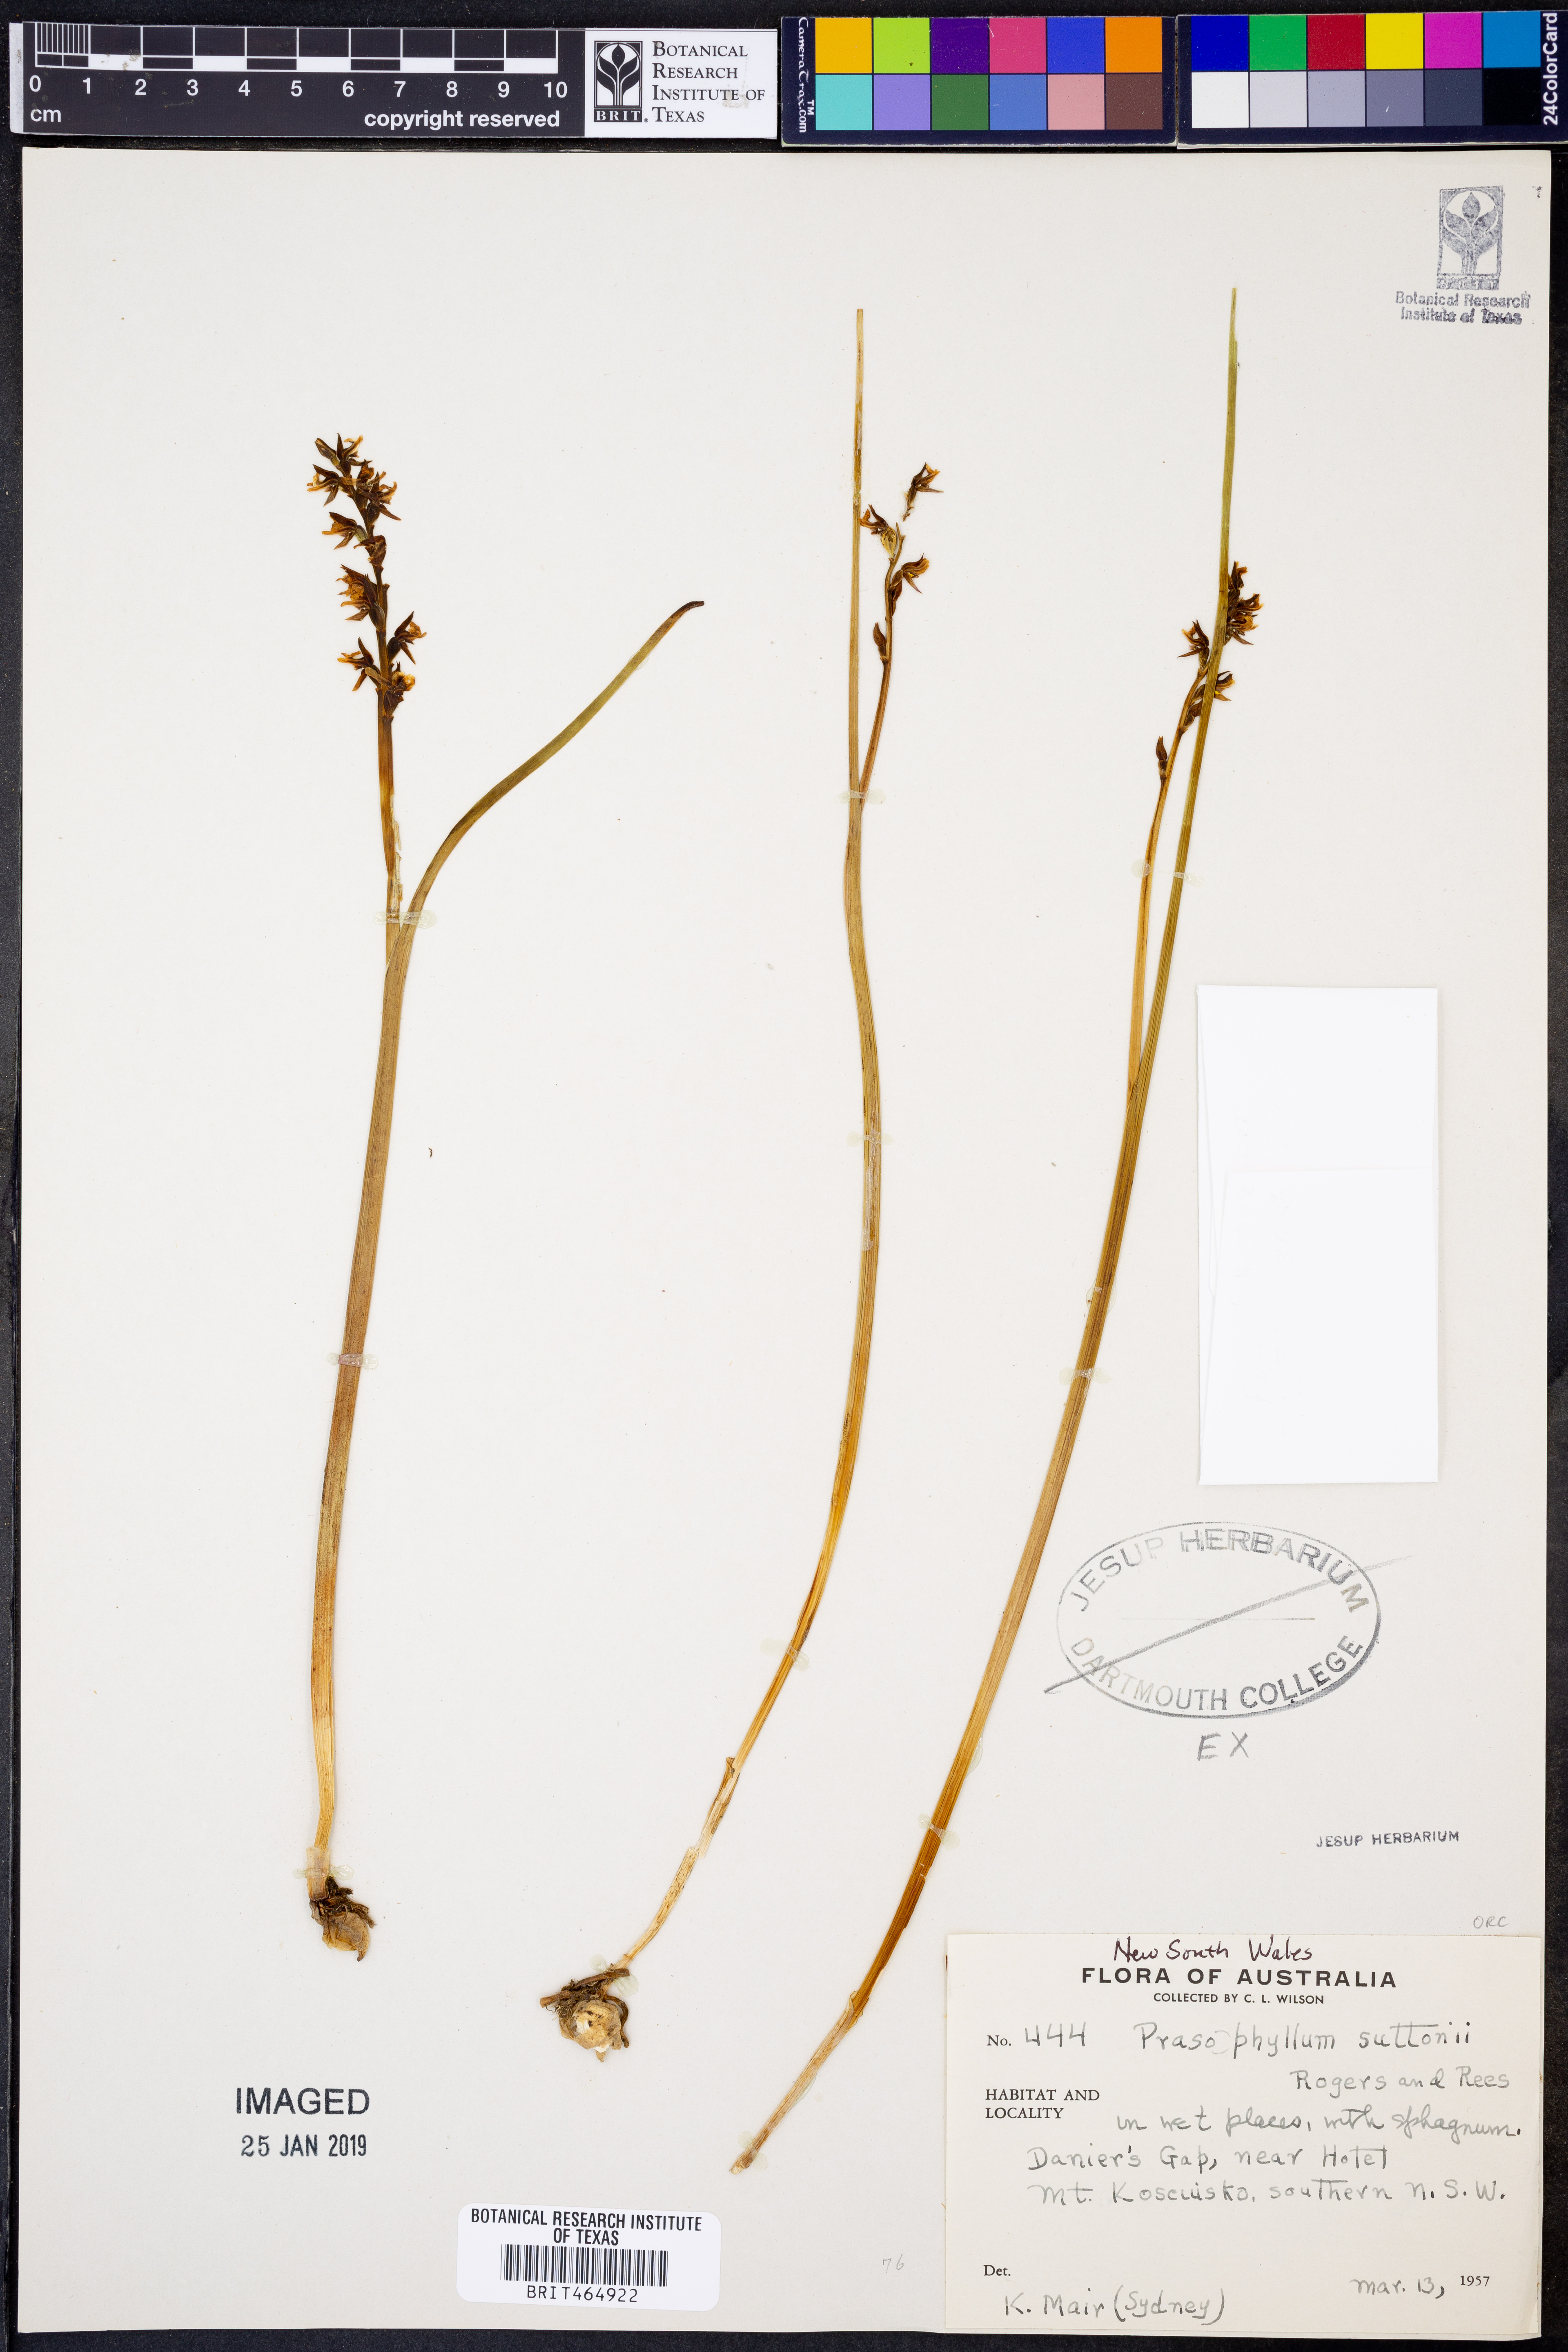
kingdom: Plantae
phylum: Tracheophyta
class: Liliopsida
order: Asparagales
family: Orchidaceae
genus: Prasophyllum
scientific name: Prasophyllum suttonii
